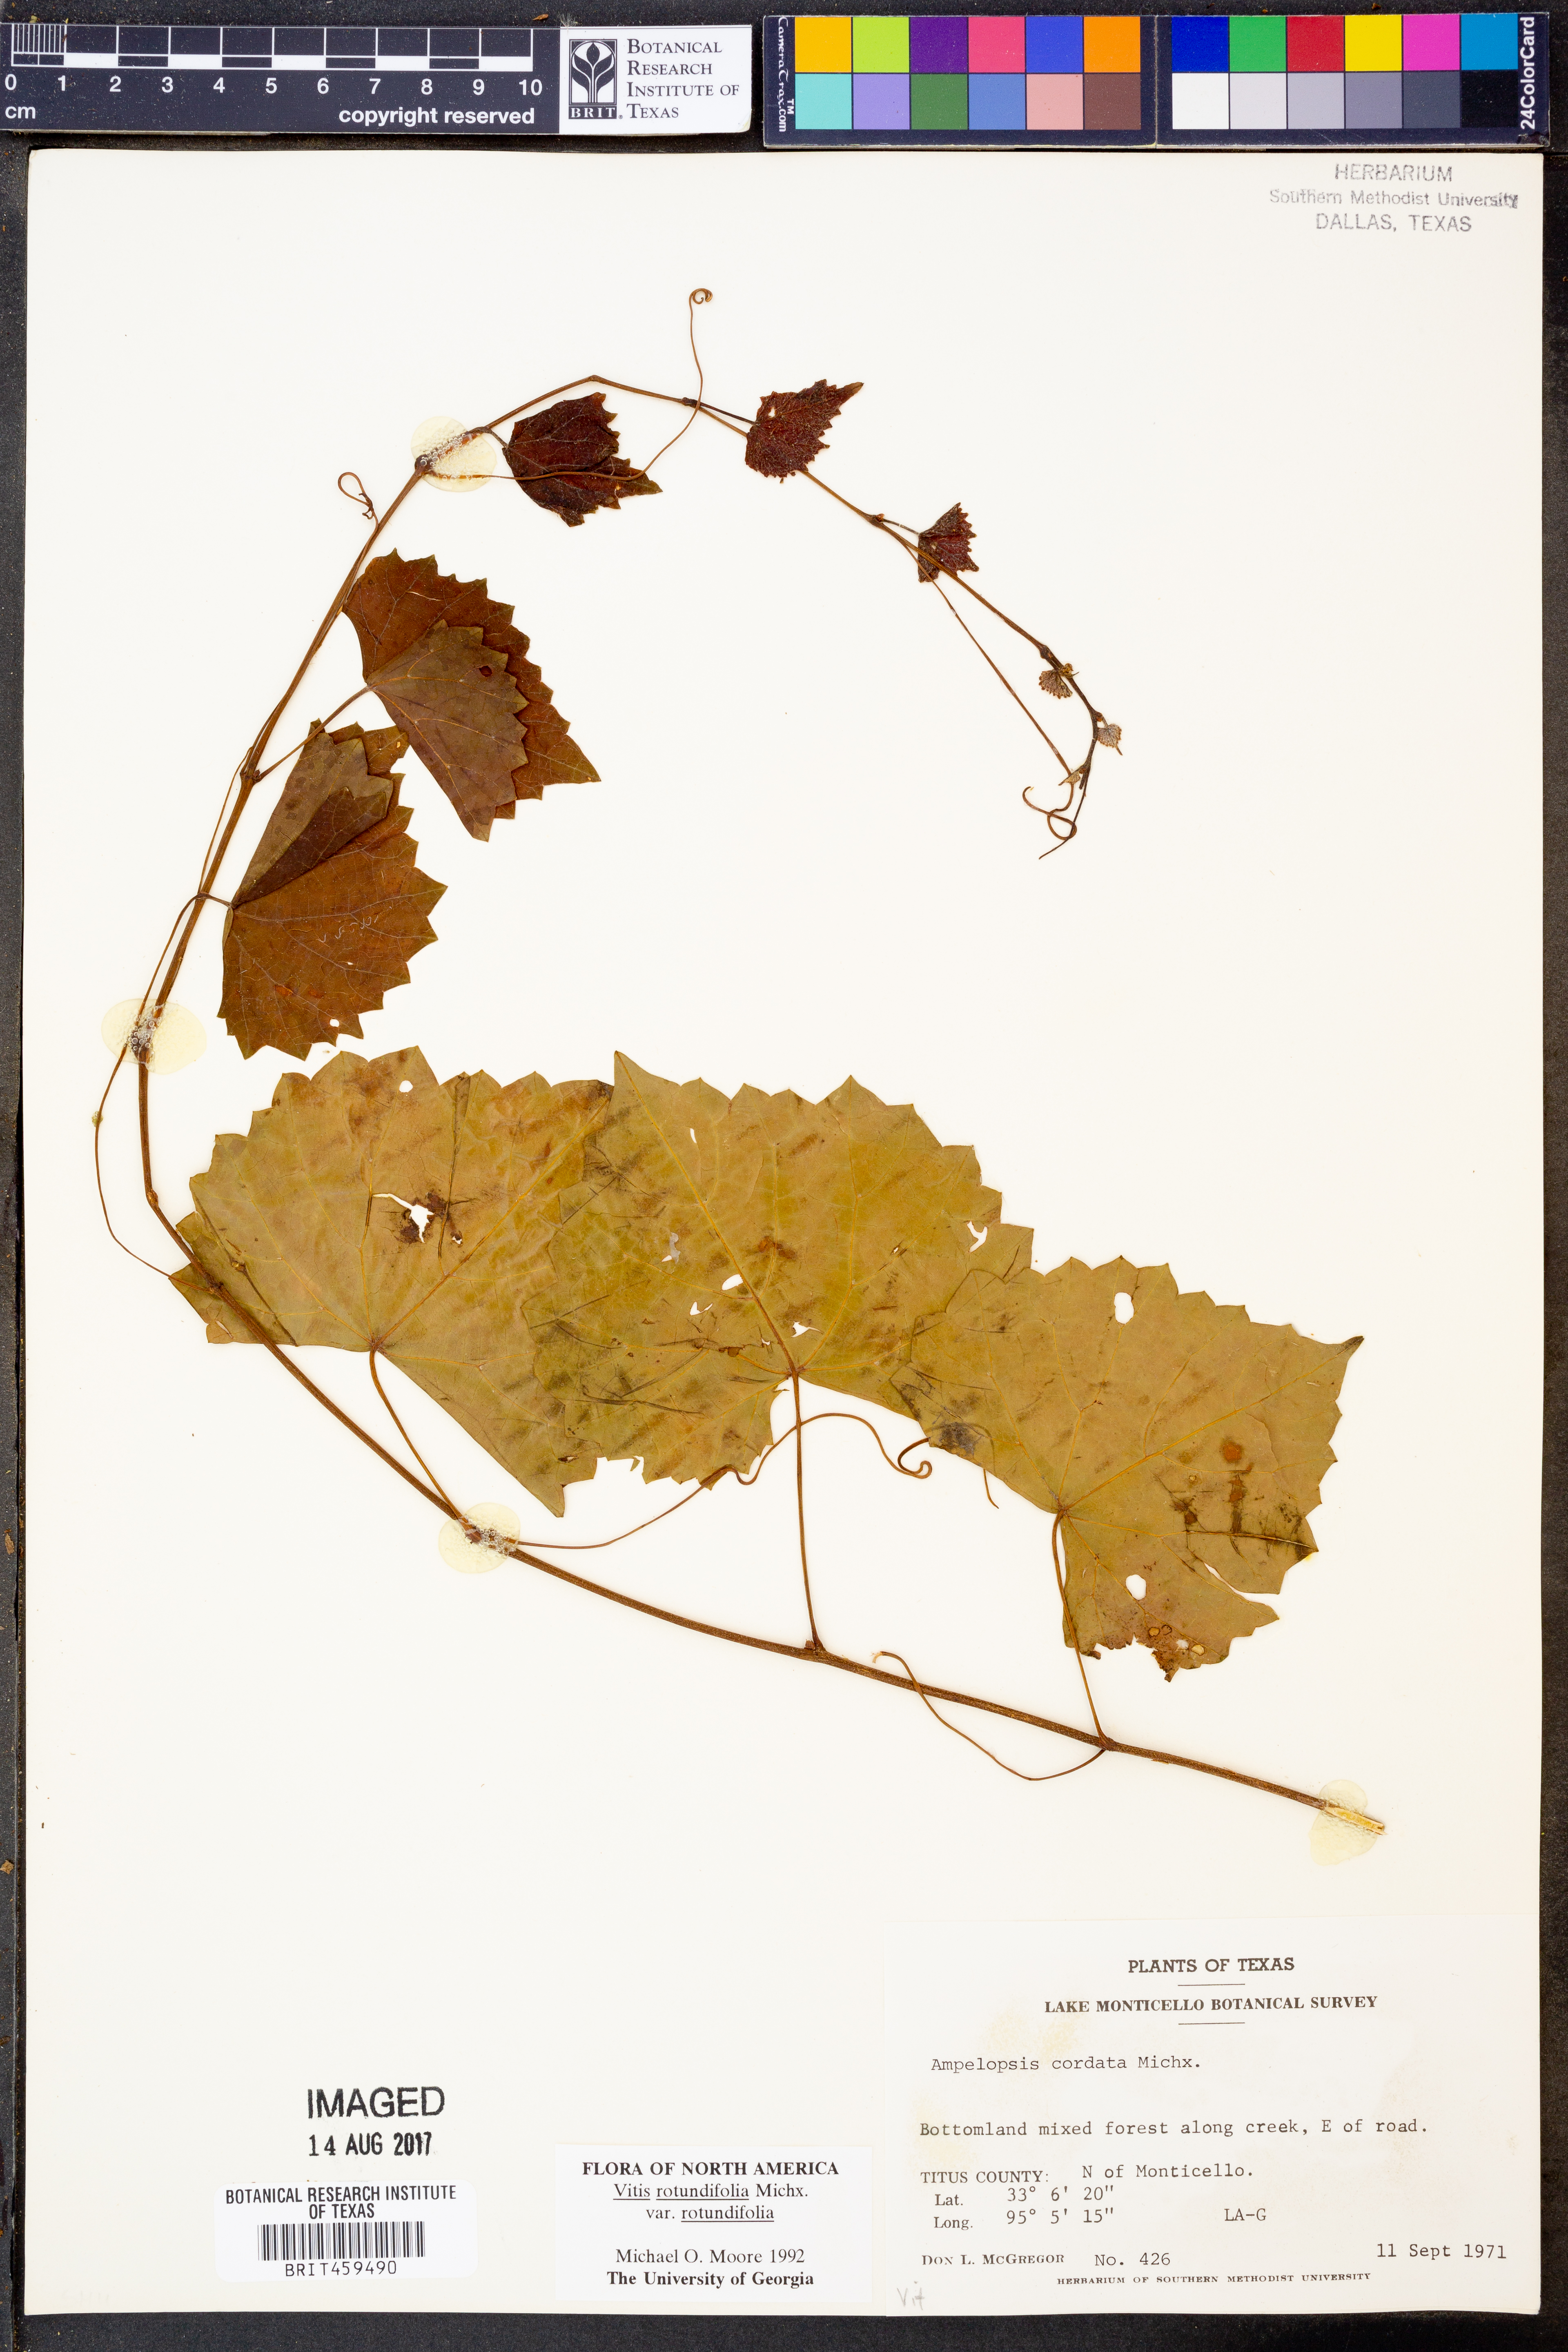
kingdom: Plantae
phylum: Tracheophyta
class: Magnoliopsida
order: Vitales
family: Vitaceae
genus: Vitis
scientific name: Vitis rotundifolia
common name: Muscadine grape
